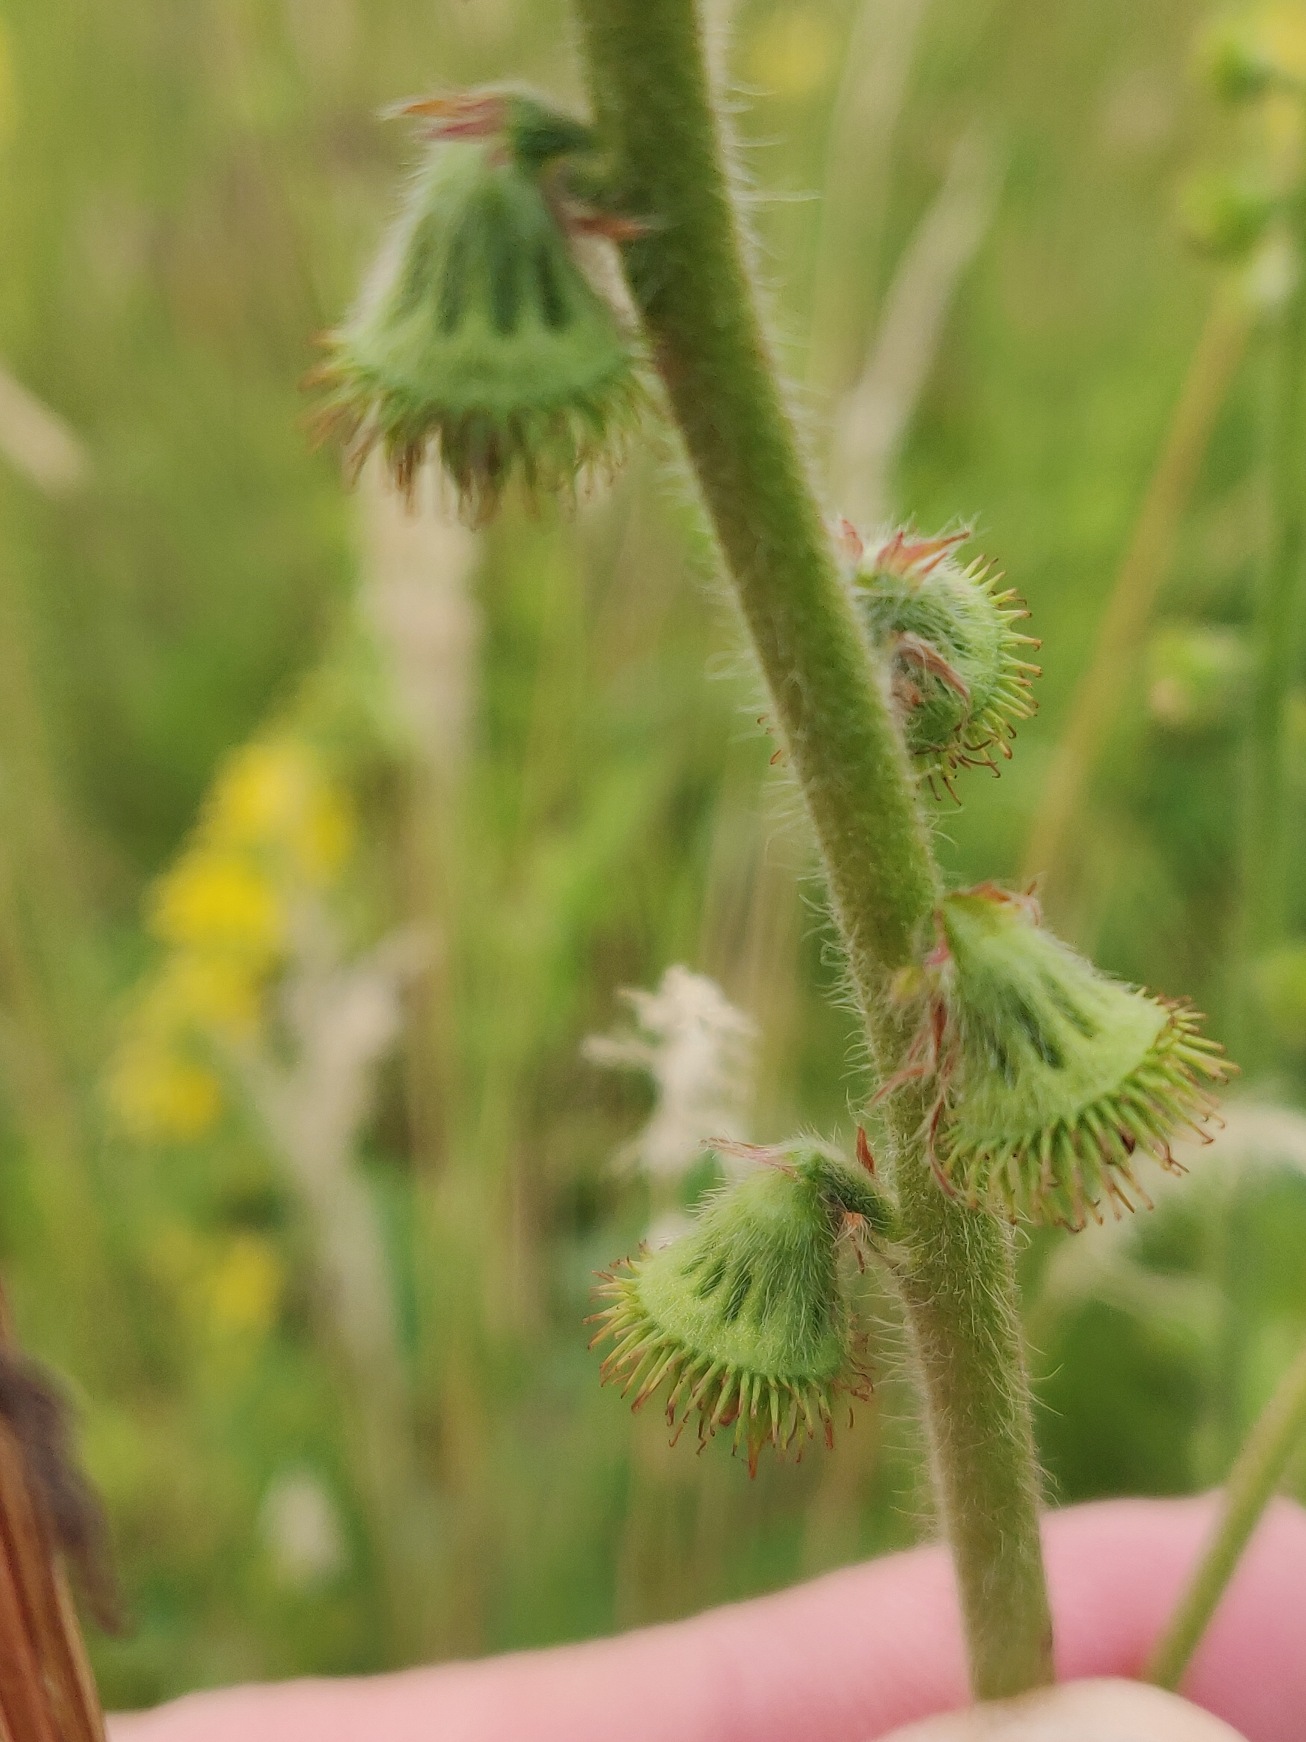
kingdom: Plantae
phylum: Tracheophyta
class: Magnoliopsida
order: Rosales
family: Rosaceae
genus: Agrimonia
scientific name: Agrimonia eupatoria
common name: Almindelig agermåne
